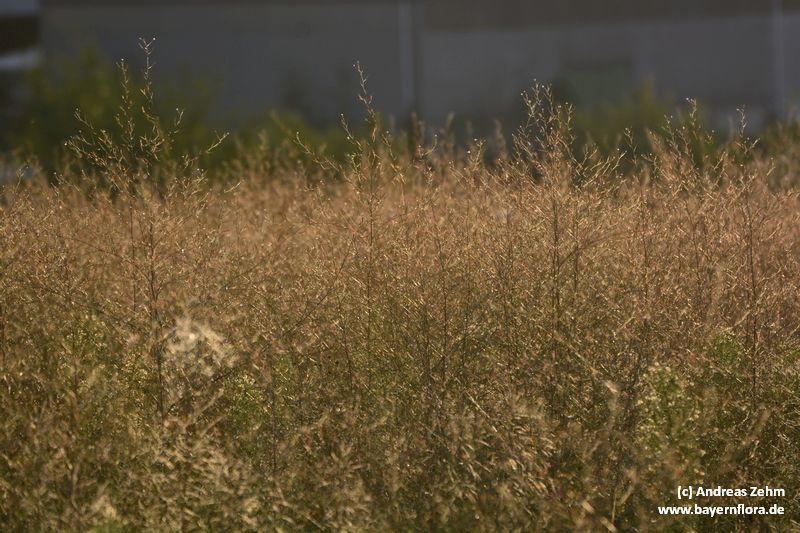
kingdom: Plantae
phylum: Tracheophyta
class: Magnoliopsida
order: Myrtales
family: Onagraceae
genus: Epilobium
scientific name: Epilobium brachycarpum
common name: Annual willowherb
